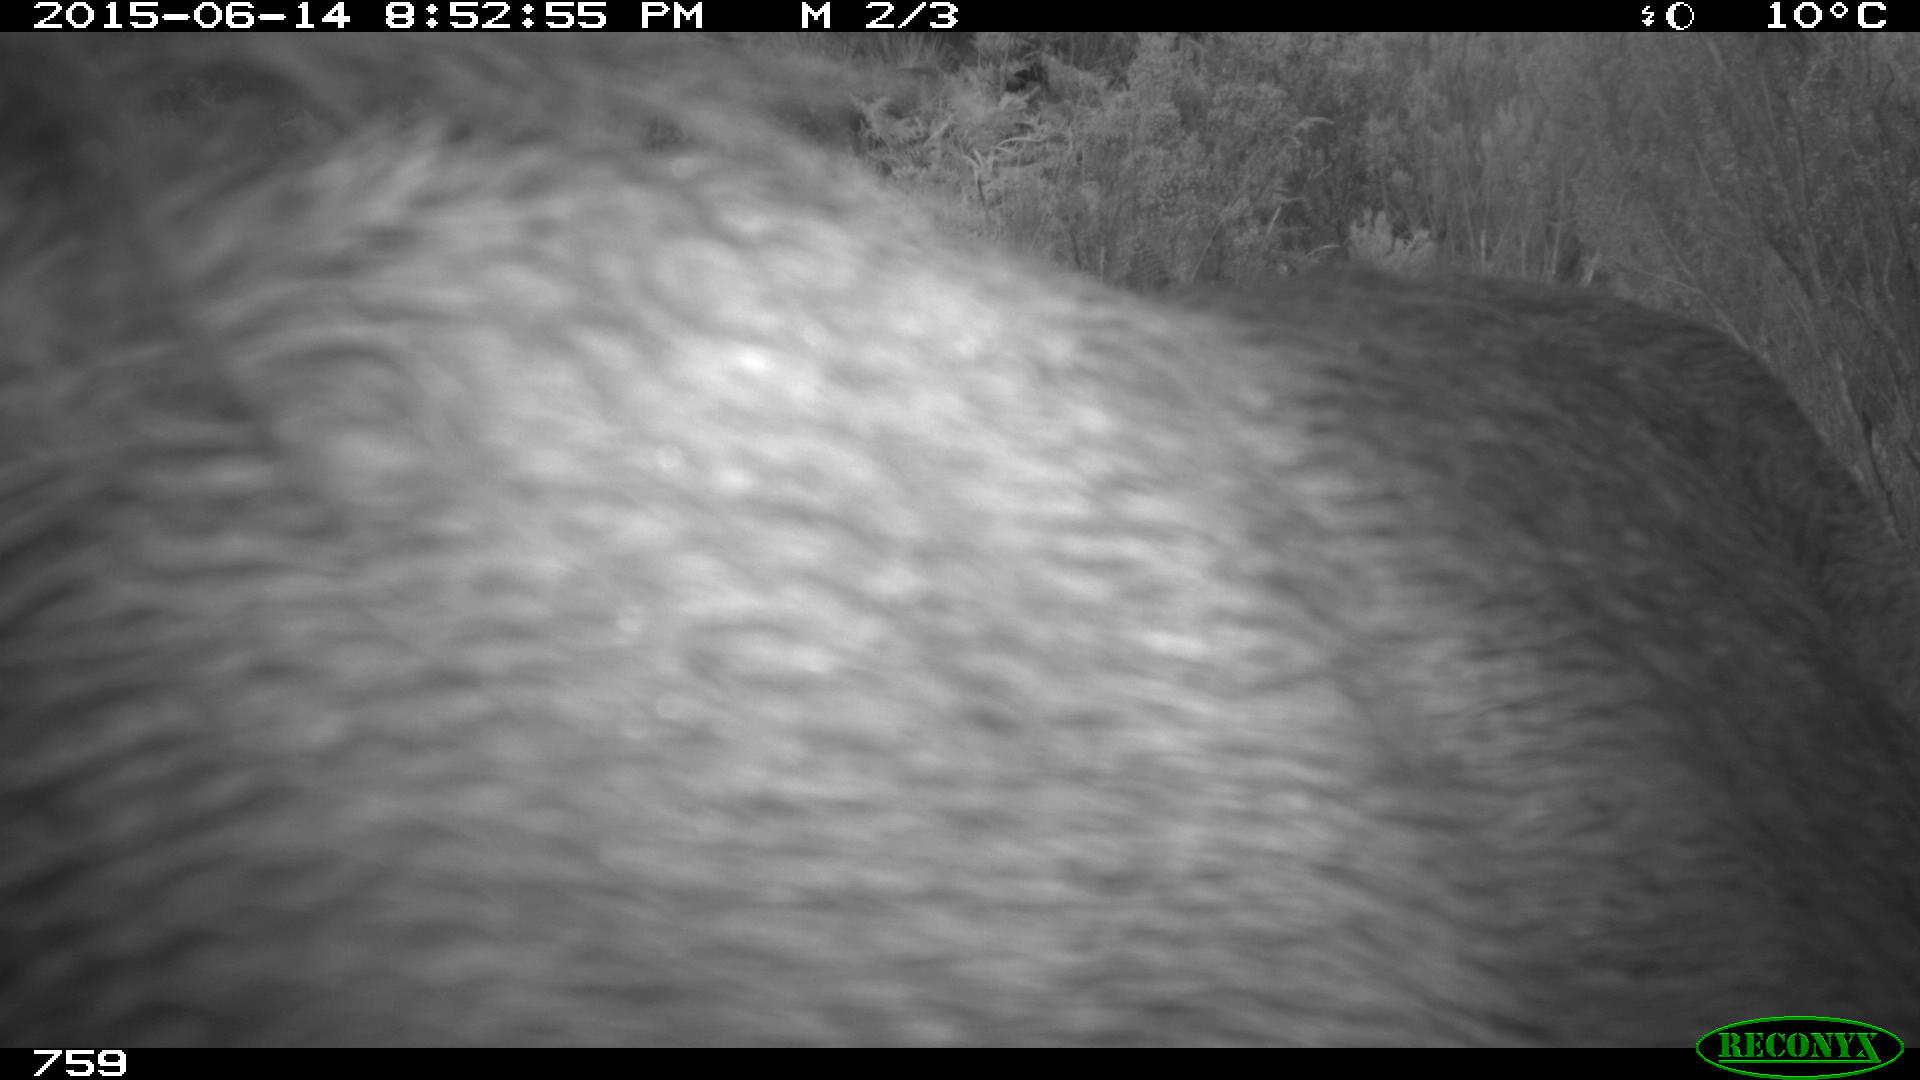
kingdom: Animalia
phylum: Chordata
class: Mammalia
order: Perissodactyla
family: Equidae
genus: Equus
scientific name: Equus caballus
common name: Horse
